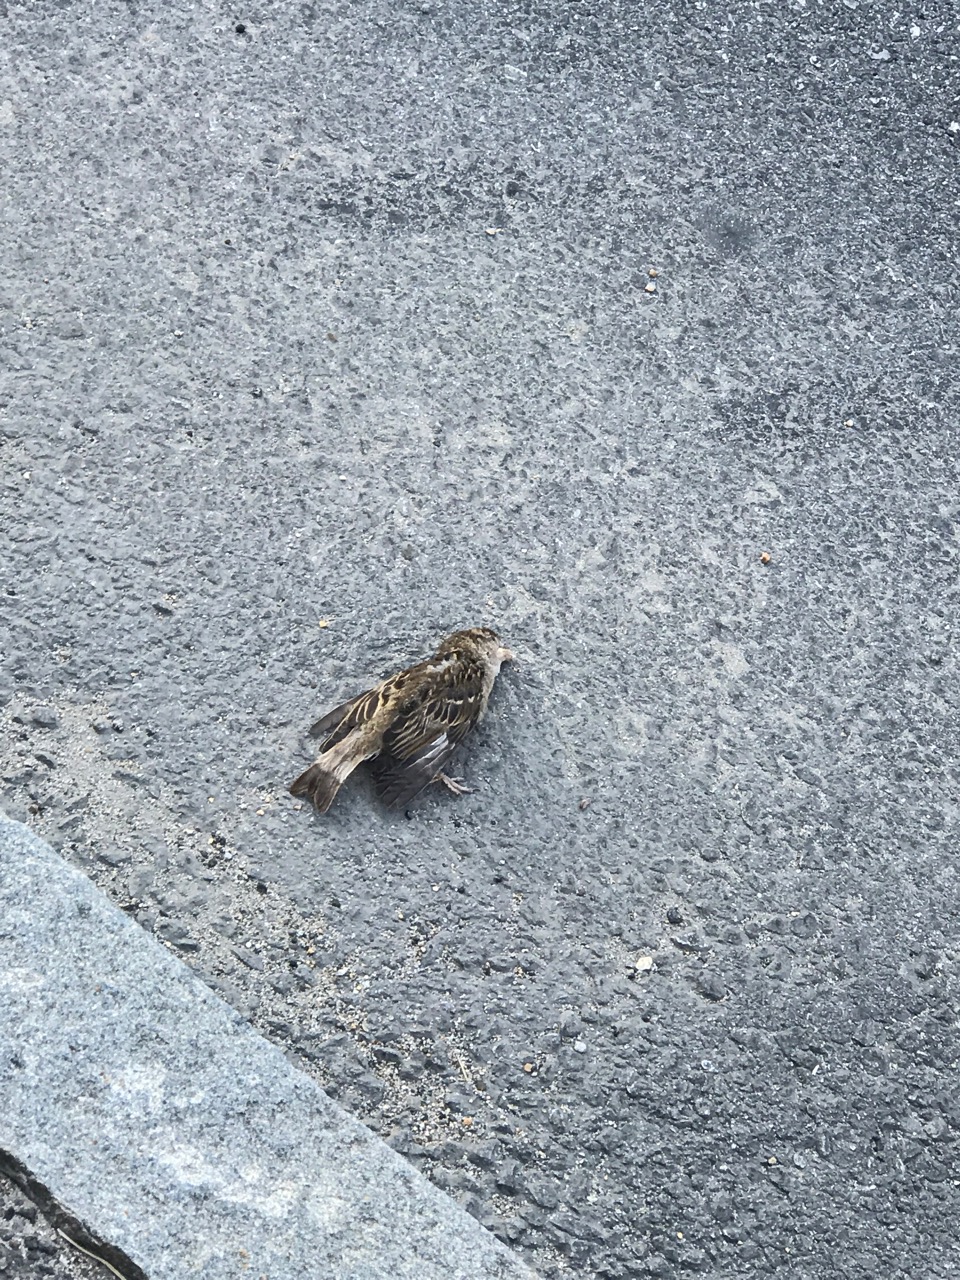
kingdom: Animalia
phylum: Chordata
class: Aves
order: Passeriformes
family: Passeridae
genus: Passer
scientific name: Passer
